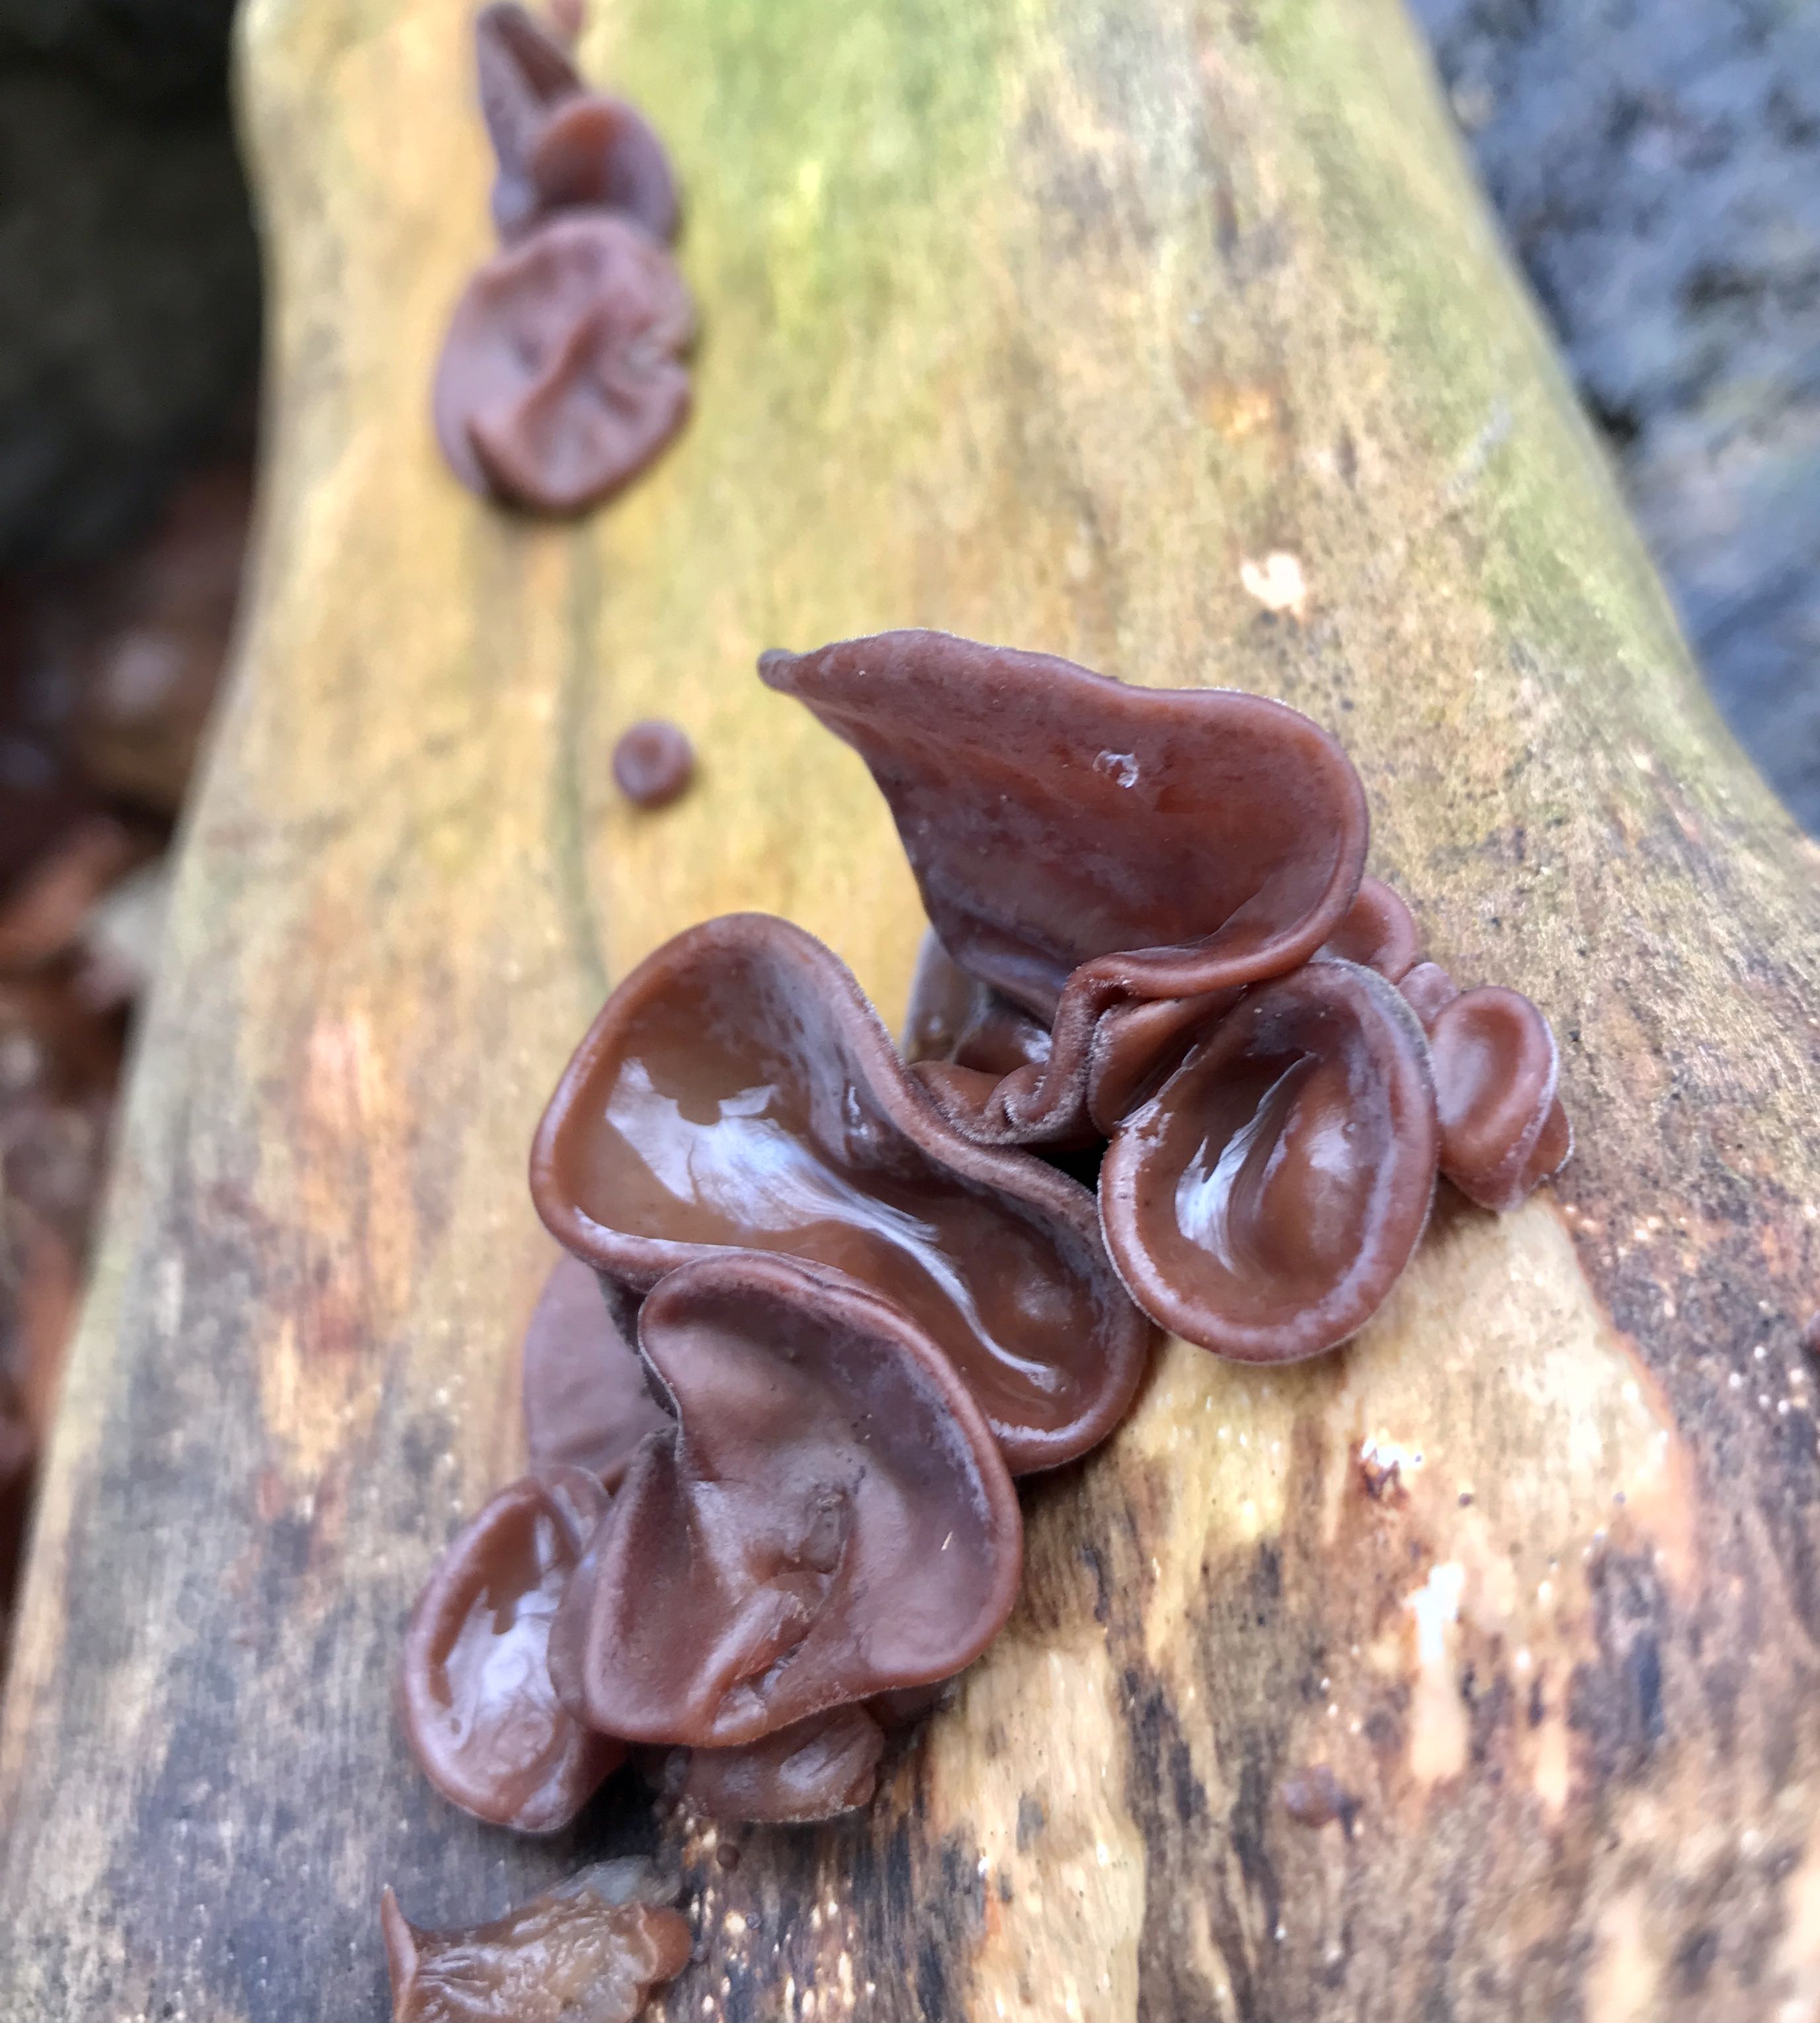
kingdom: Fungi
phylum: Basidiomycota
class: Agaricomycetes
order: Auriculariales
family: Auriculariaceae
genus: Auricularia
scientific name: Auricularia auricula-judae
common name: almindelig judasøre
